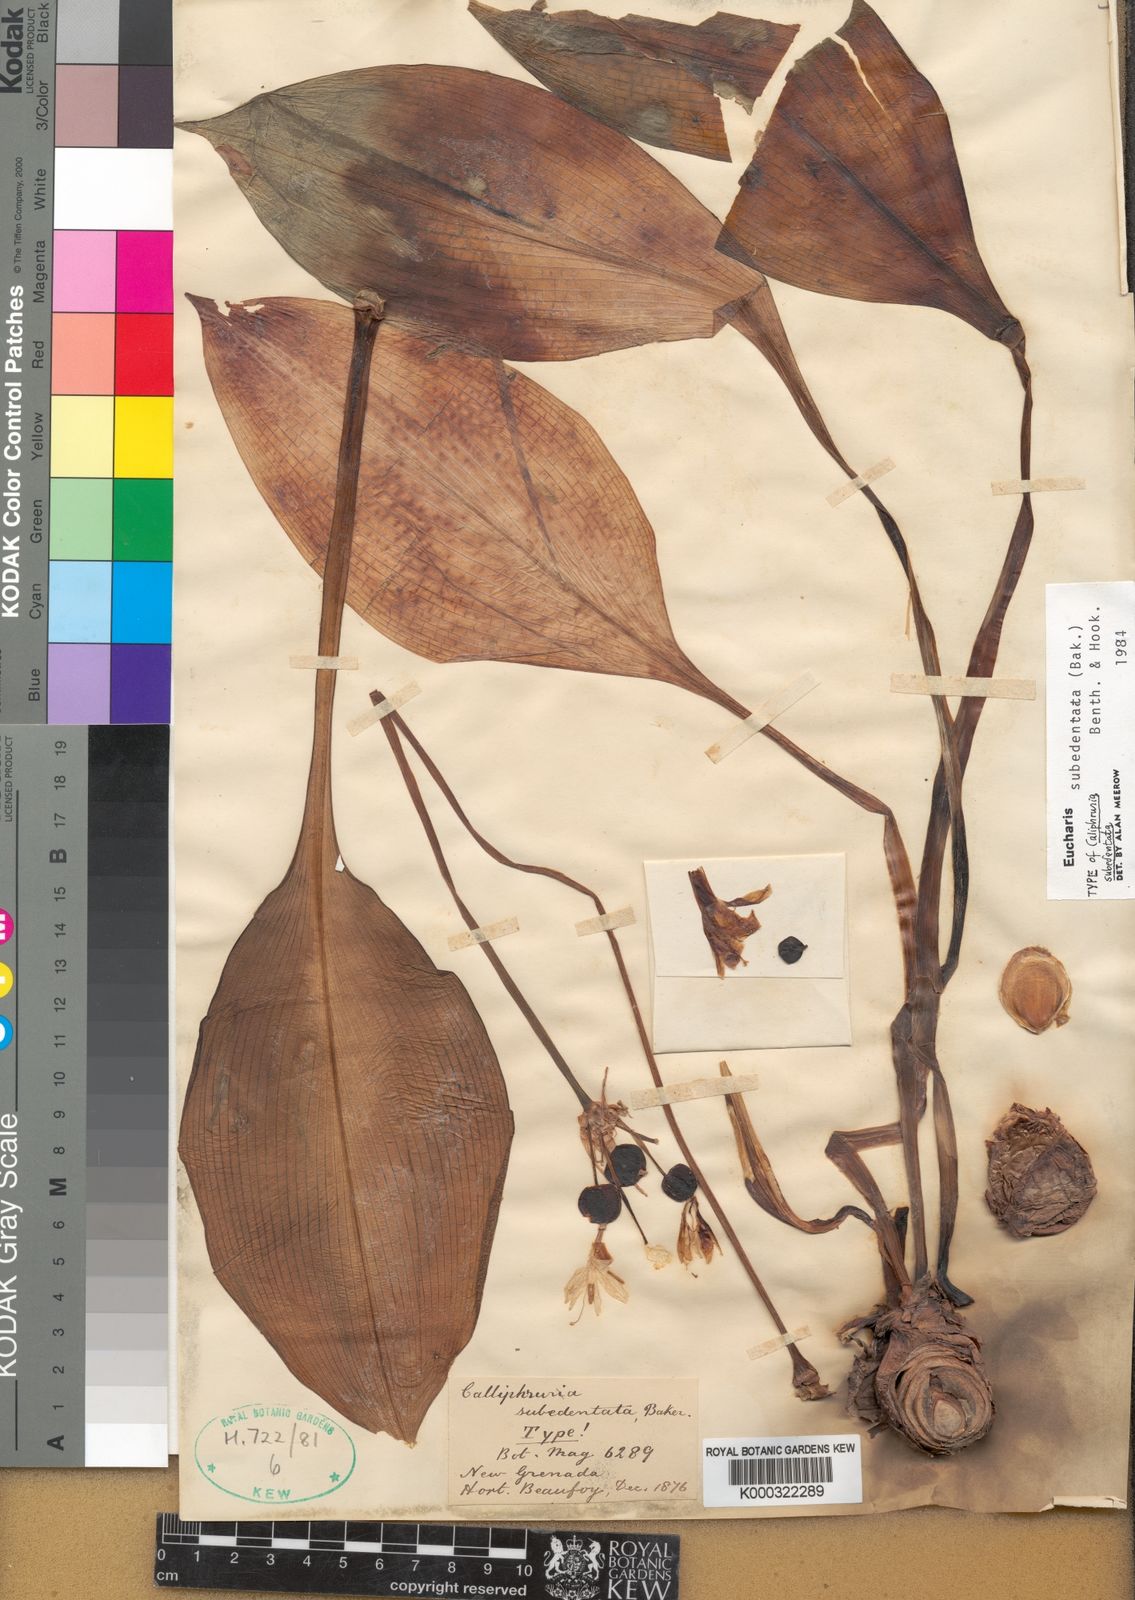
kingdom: Plantae
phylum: Tracheophyta
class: Liliopsida
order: Asparagales
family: Amaryllidaceae
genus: Urceolina
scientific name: Urceolina subedentata
